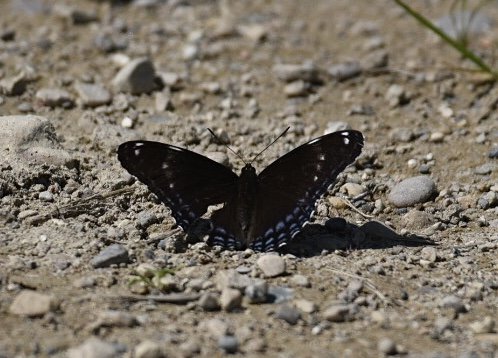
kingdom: Animalia
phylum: Arthropoda
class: Insecta
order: Lepidoptera
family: Nymphalidae
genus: Limenitis
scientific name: Limenitis
